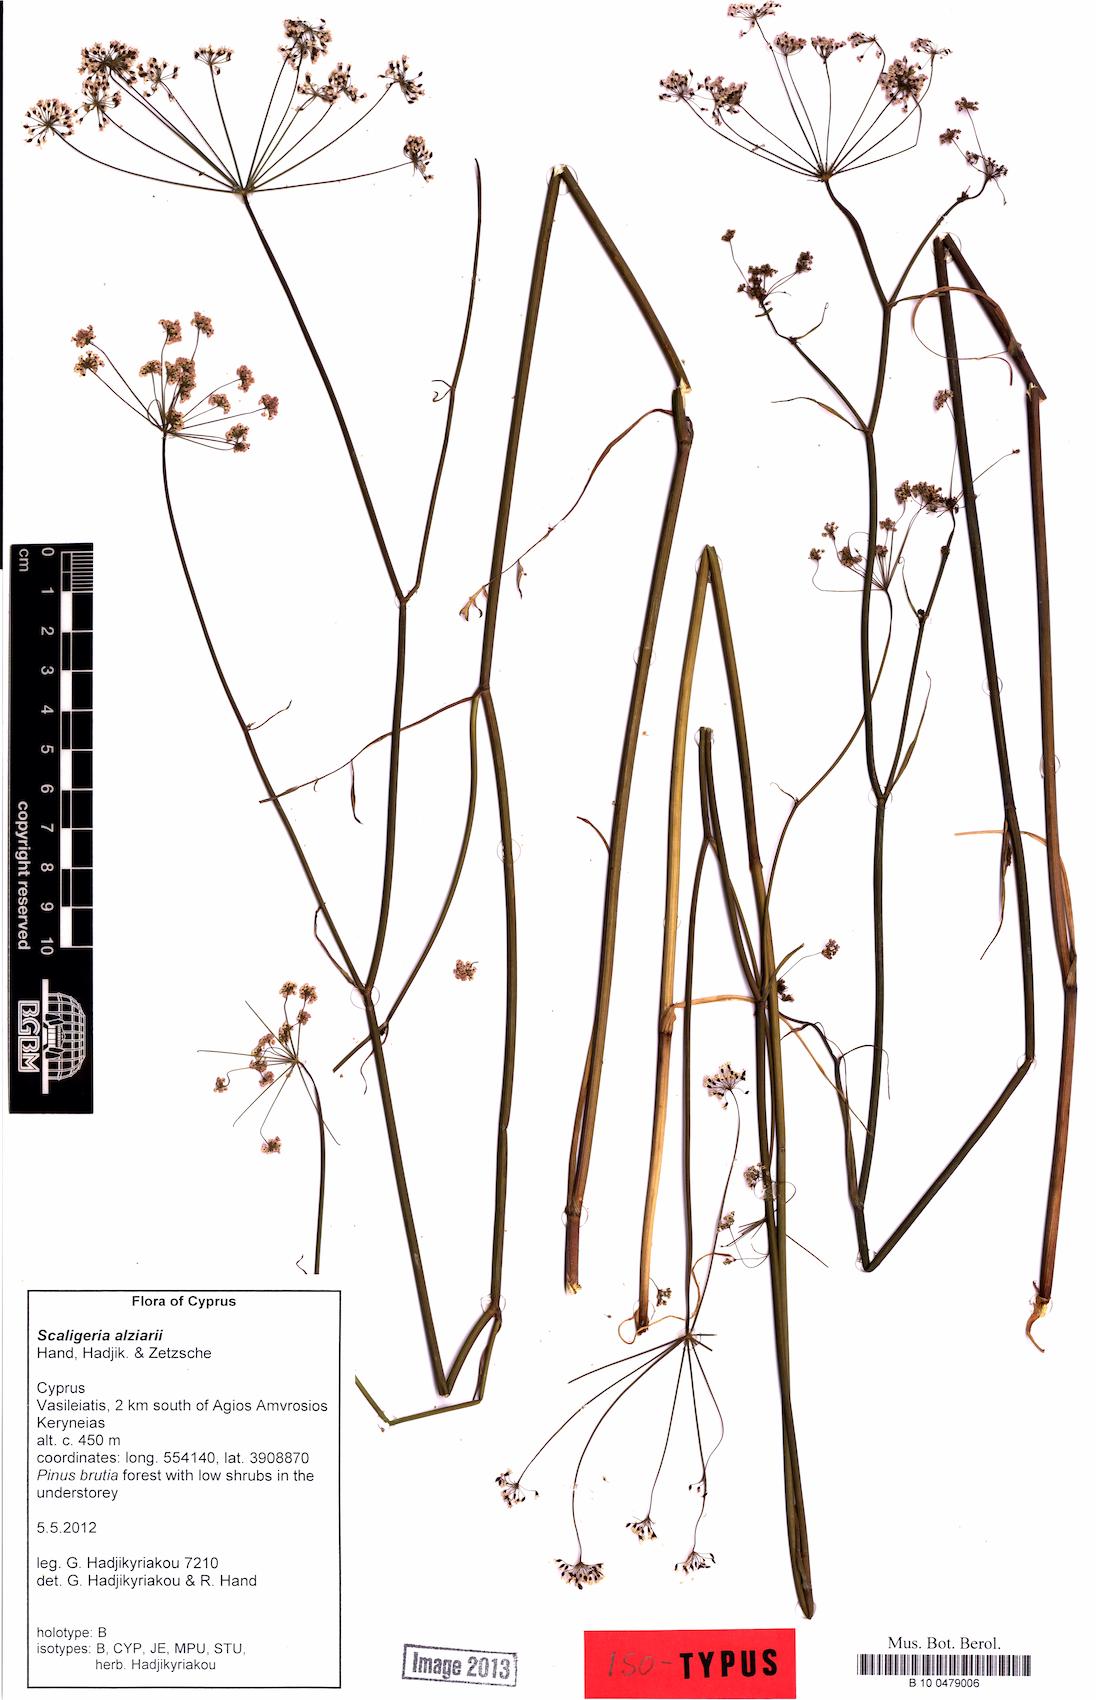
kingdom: Plantae
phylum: Tracheophyta
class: Magnoliopsida
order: Apiales
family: Apiaceae
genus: Scaligeria
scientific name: Scaligeria alziarii
